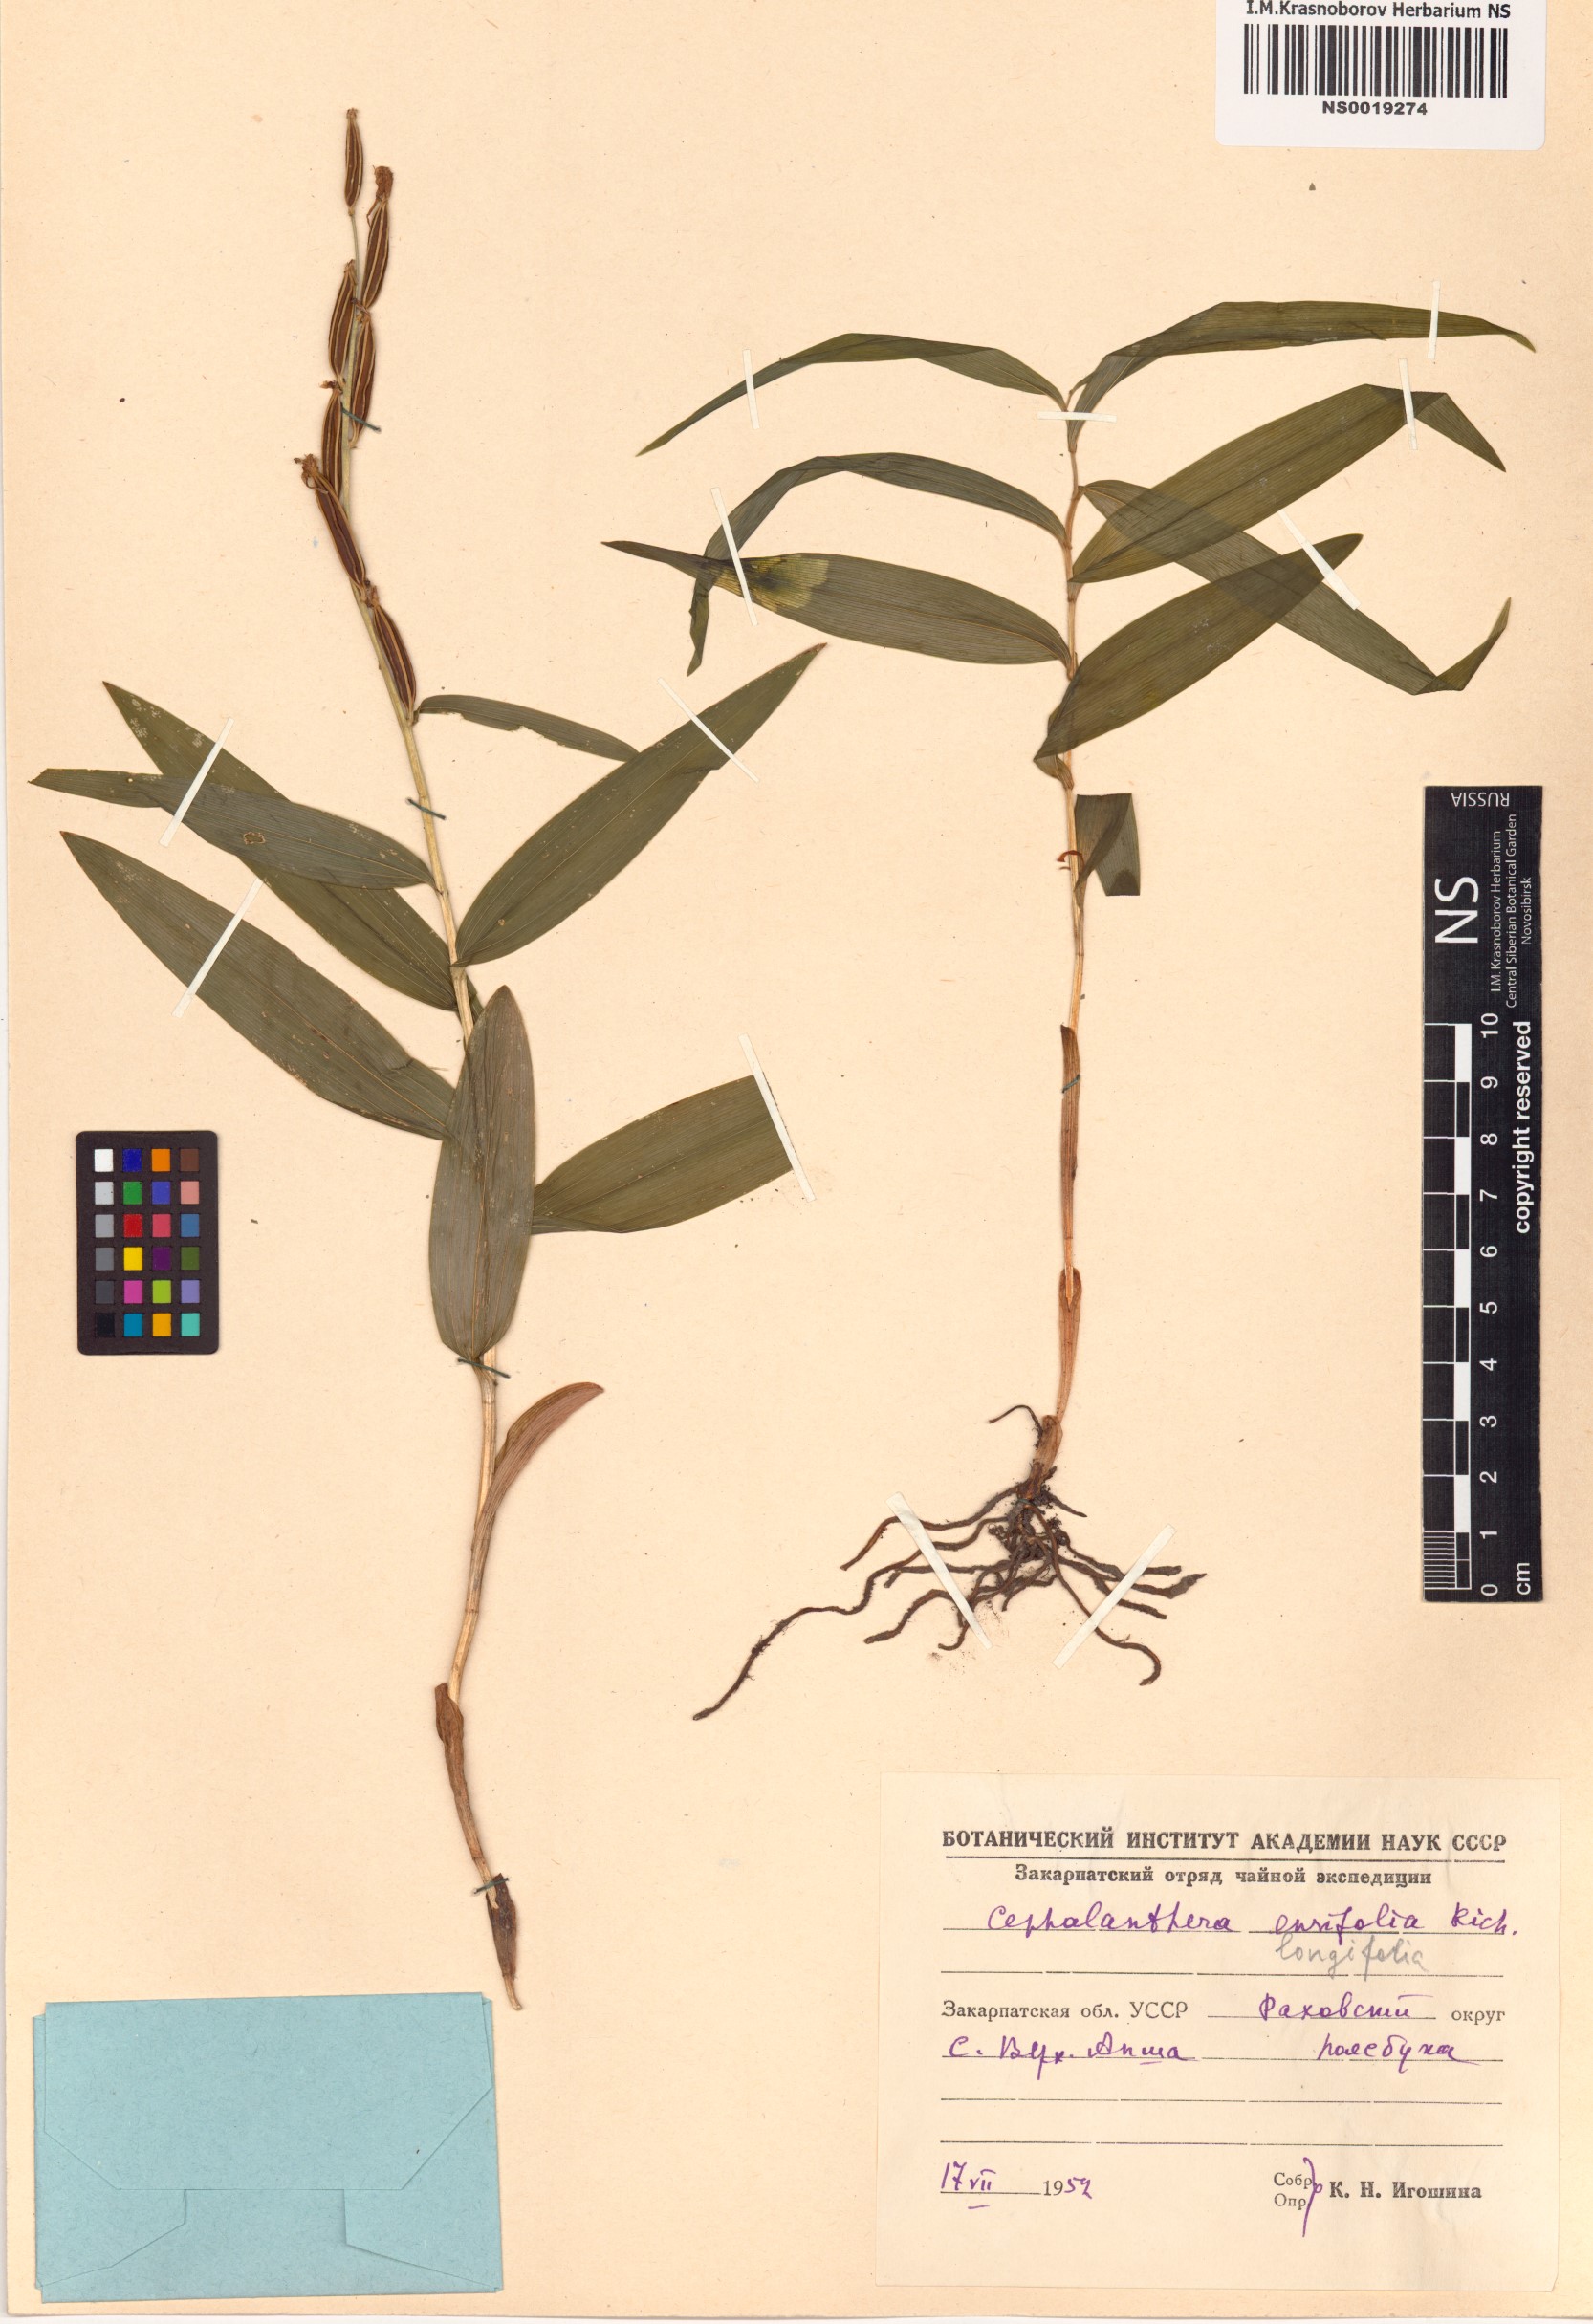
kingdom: Plantae
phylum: Tracheophyta
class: Liliopsida
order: Asparagales
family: Orchidaceae
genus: Cephalanthera
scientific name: Cephalanthera longifolia
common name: Narrow-leaved helleborine
